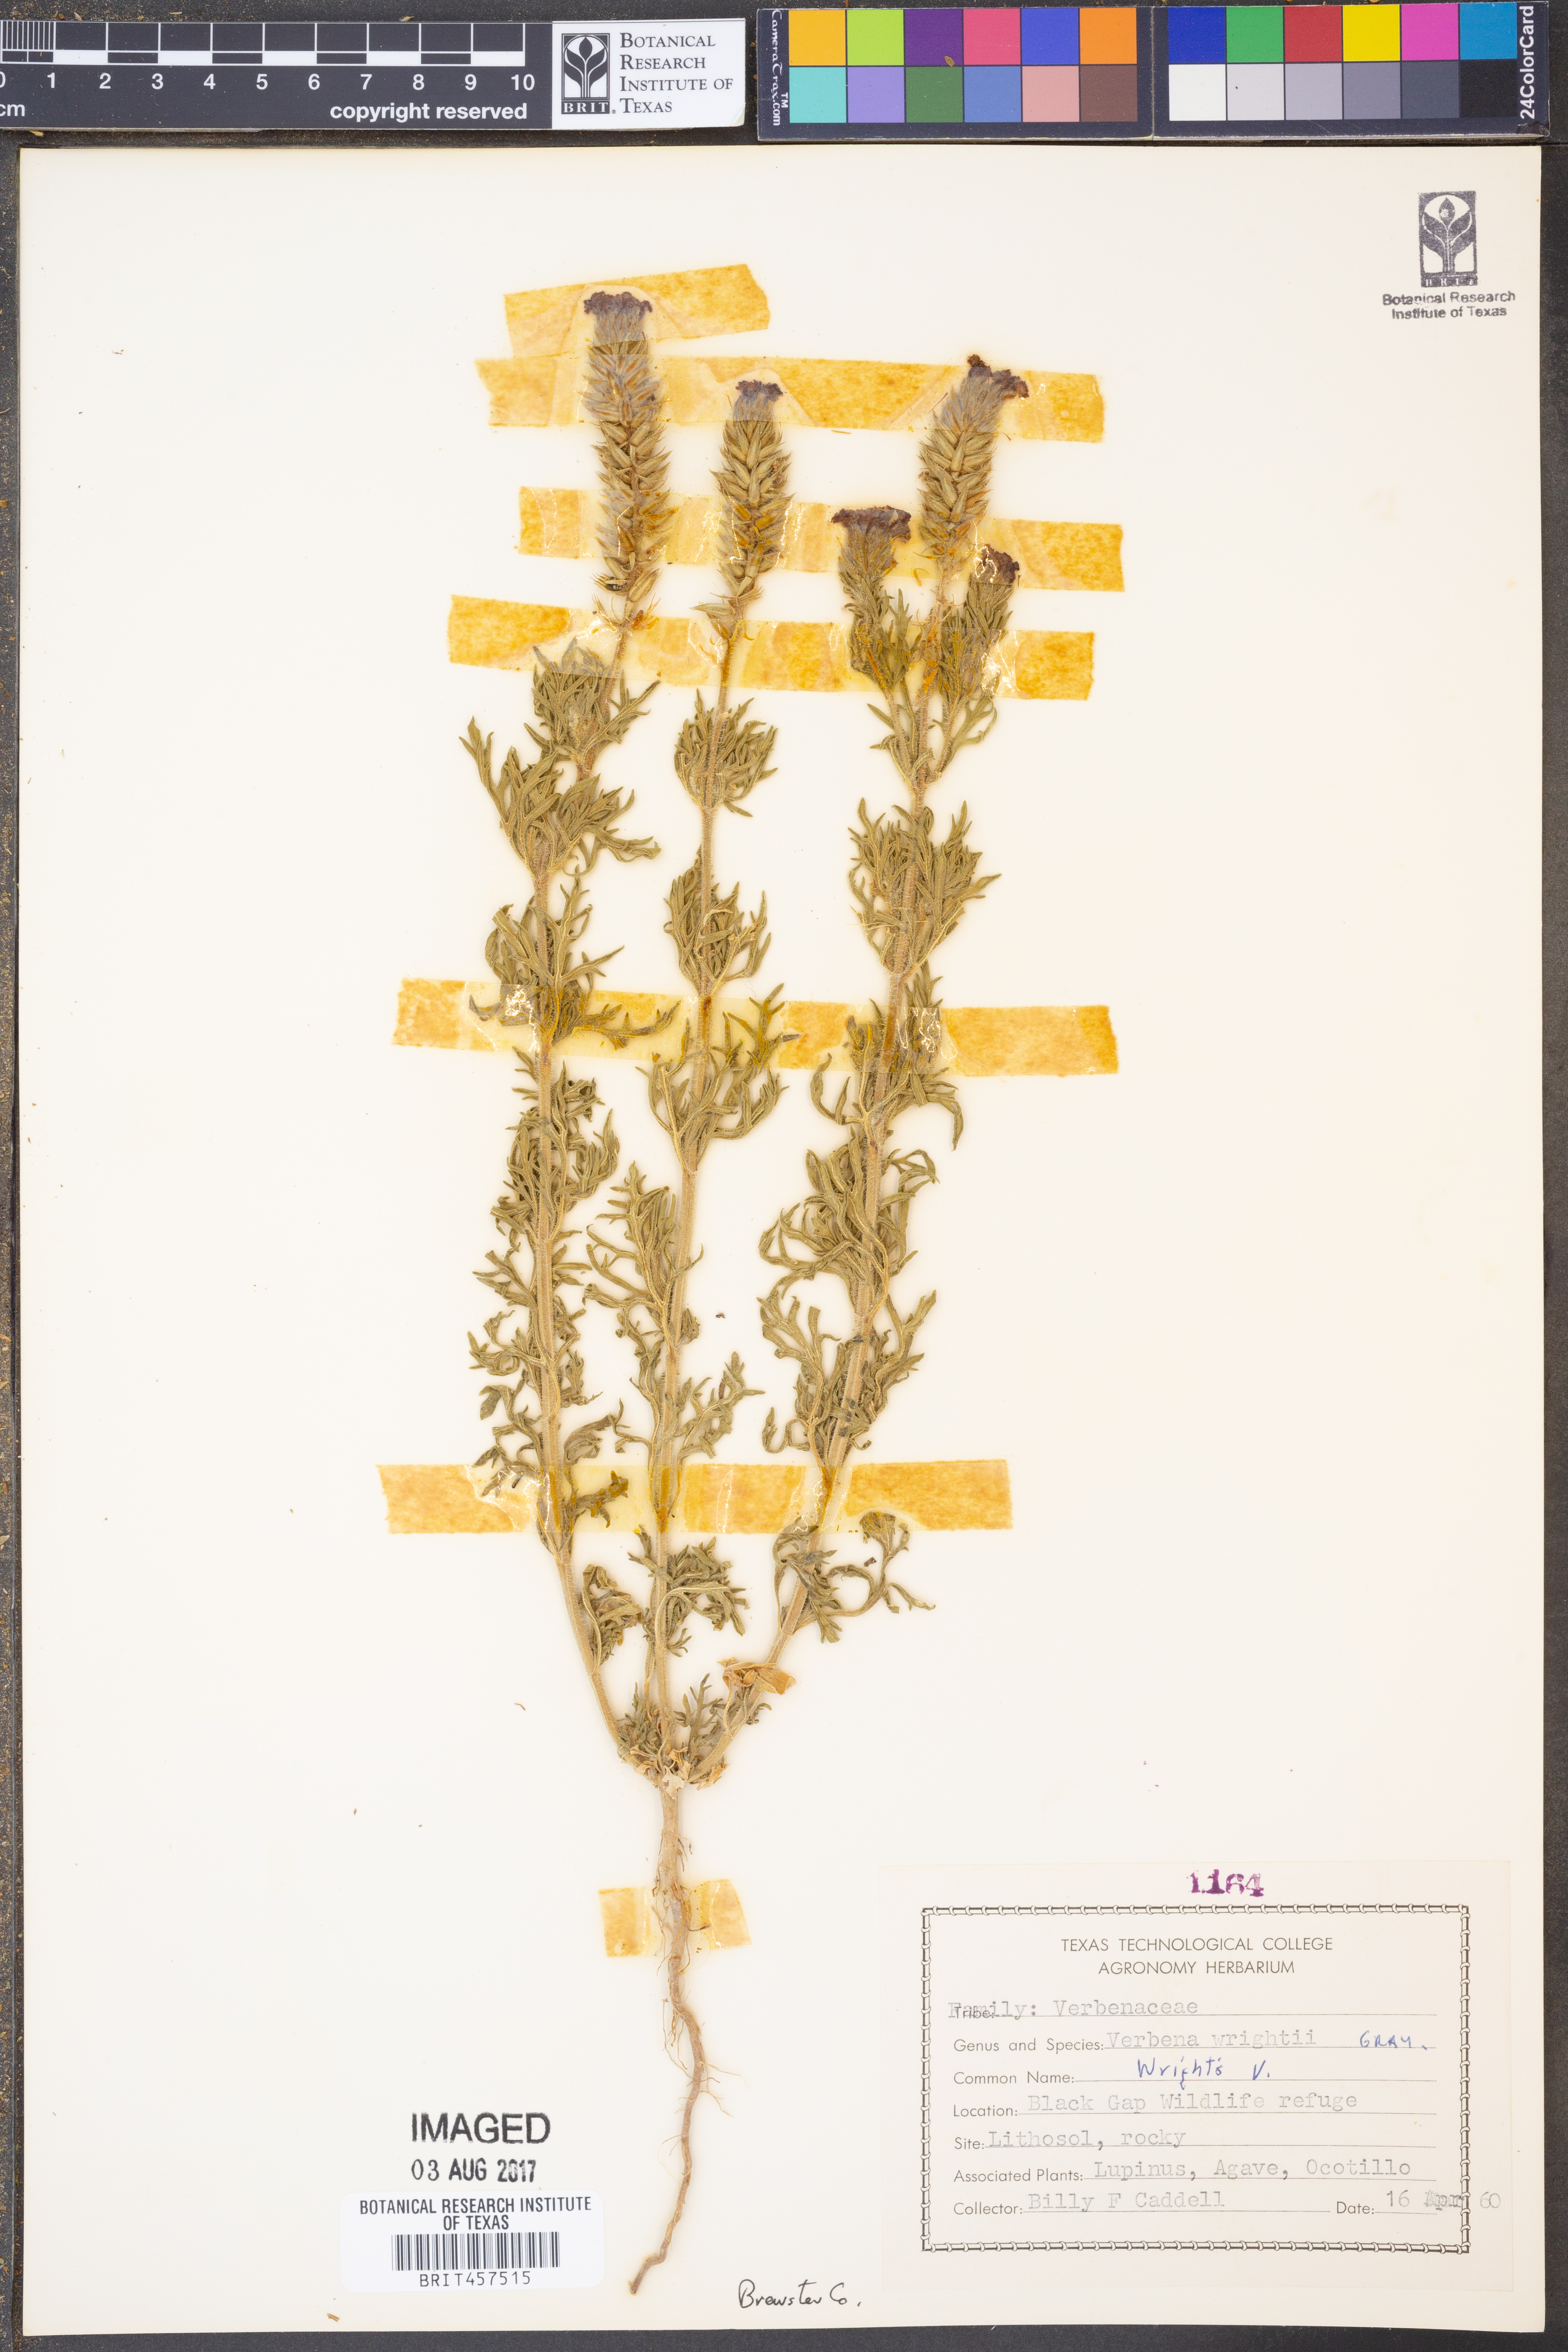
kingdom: Plantae
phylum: Tracheophyta
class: Magnoliopsida
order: Lamiales
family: Verbenaceae
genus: Verbena
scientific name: Verbena bipinnatifida
